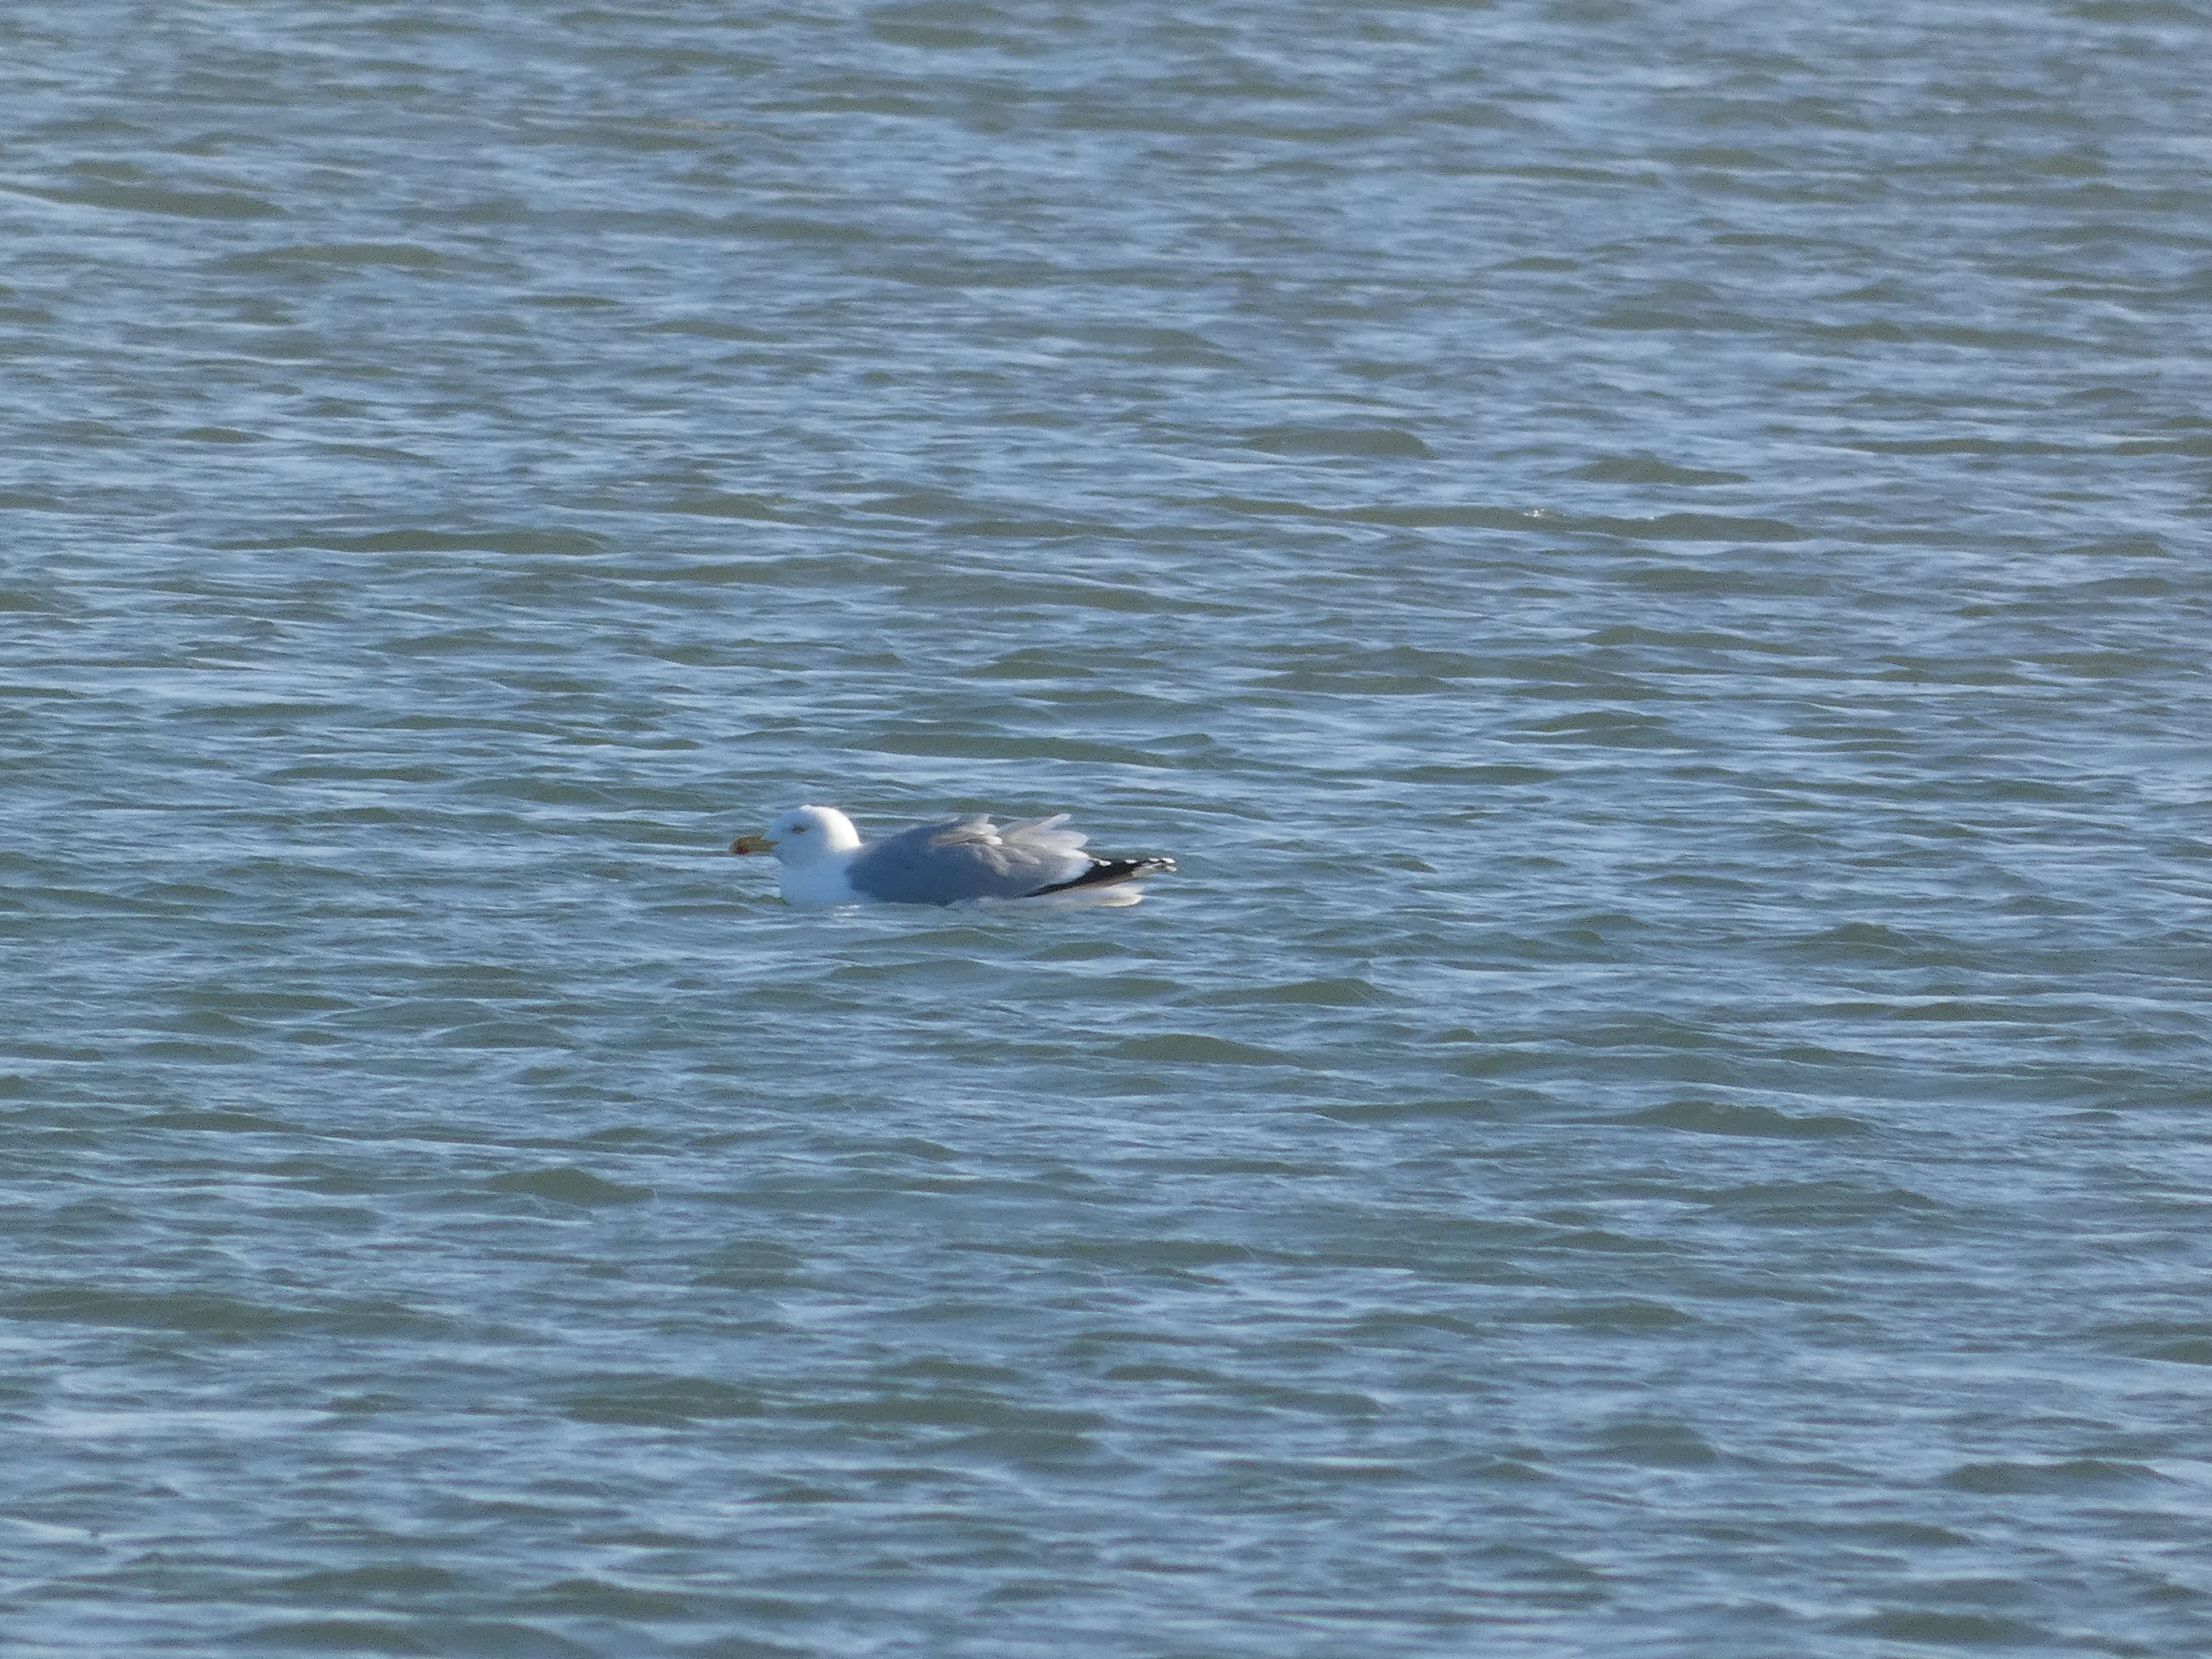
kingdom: Animalia
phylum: Chordata
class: Aves
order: Charadriiformes
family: Laridae
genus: Larus
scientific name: Larus argentatus
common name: Sølvmåge
